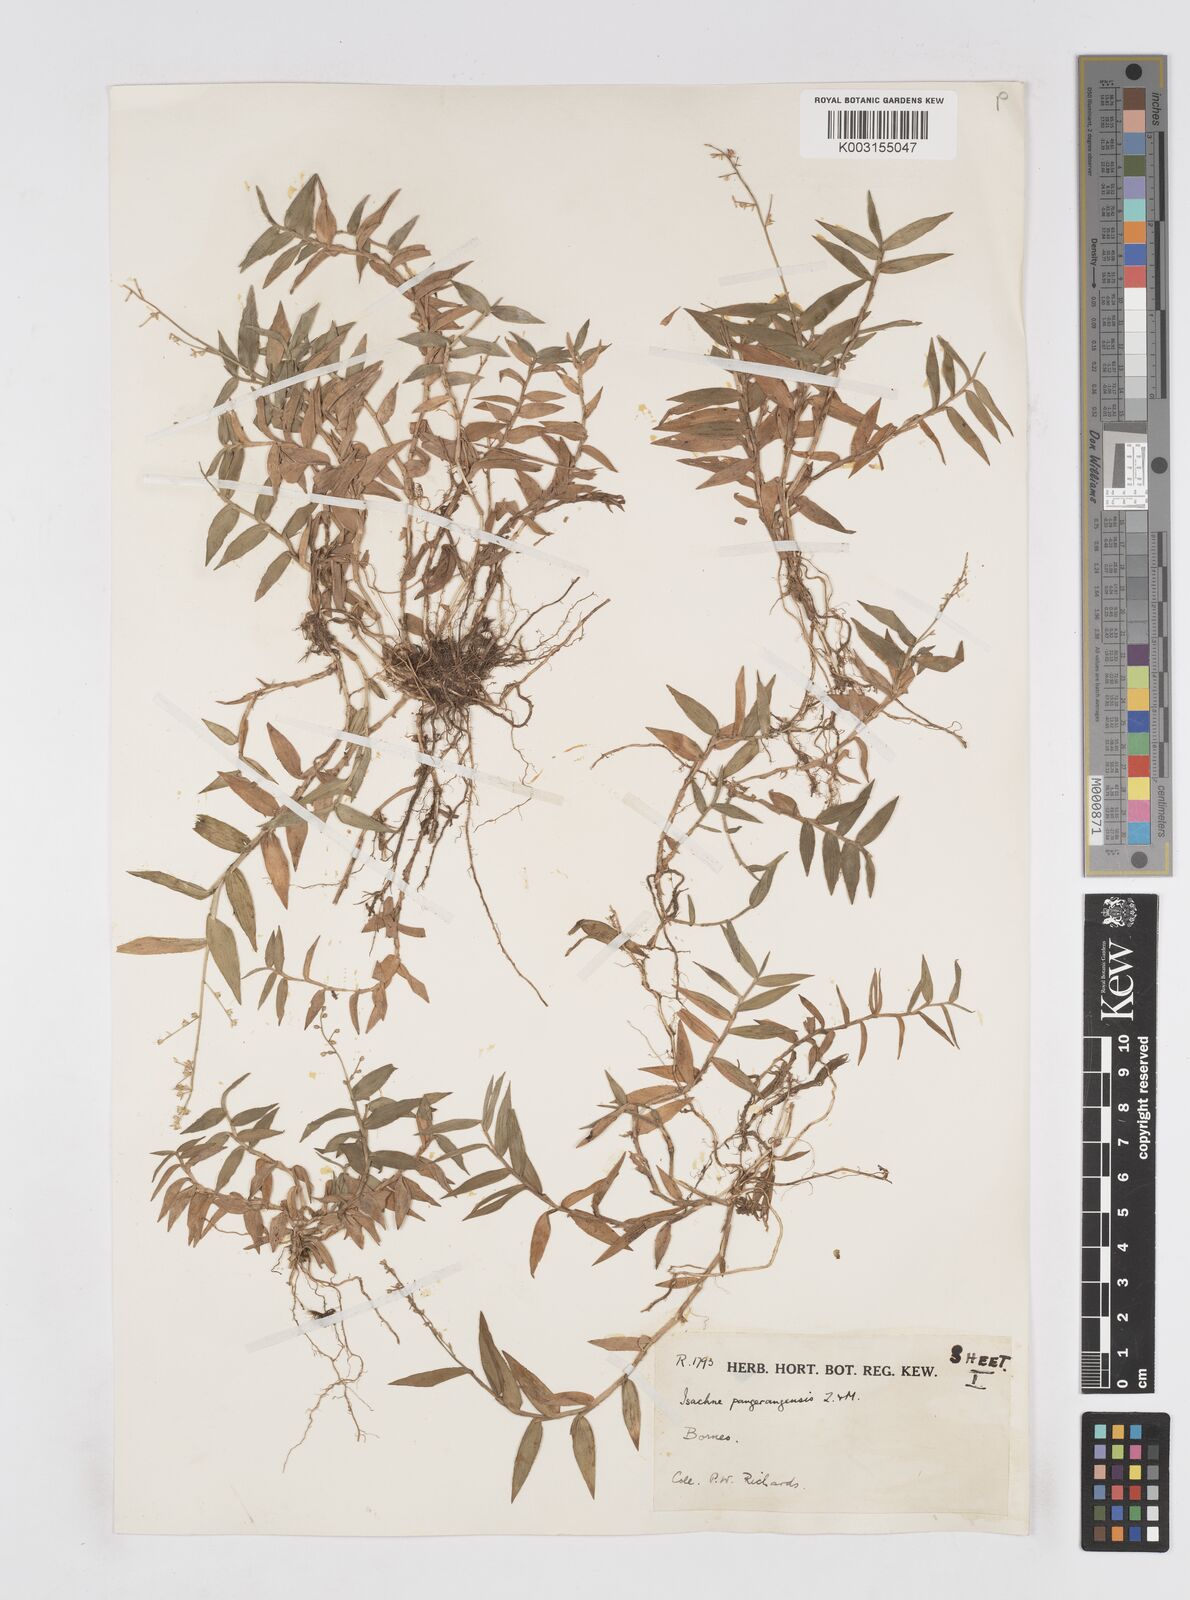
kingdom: Plantae
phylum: Tracheophyta
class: Liliopsida
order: Poales
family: Poaceae
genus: Isachne
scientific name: Isachne pangerangensis
